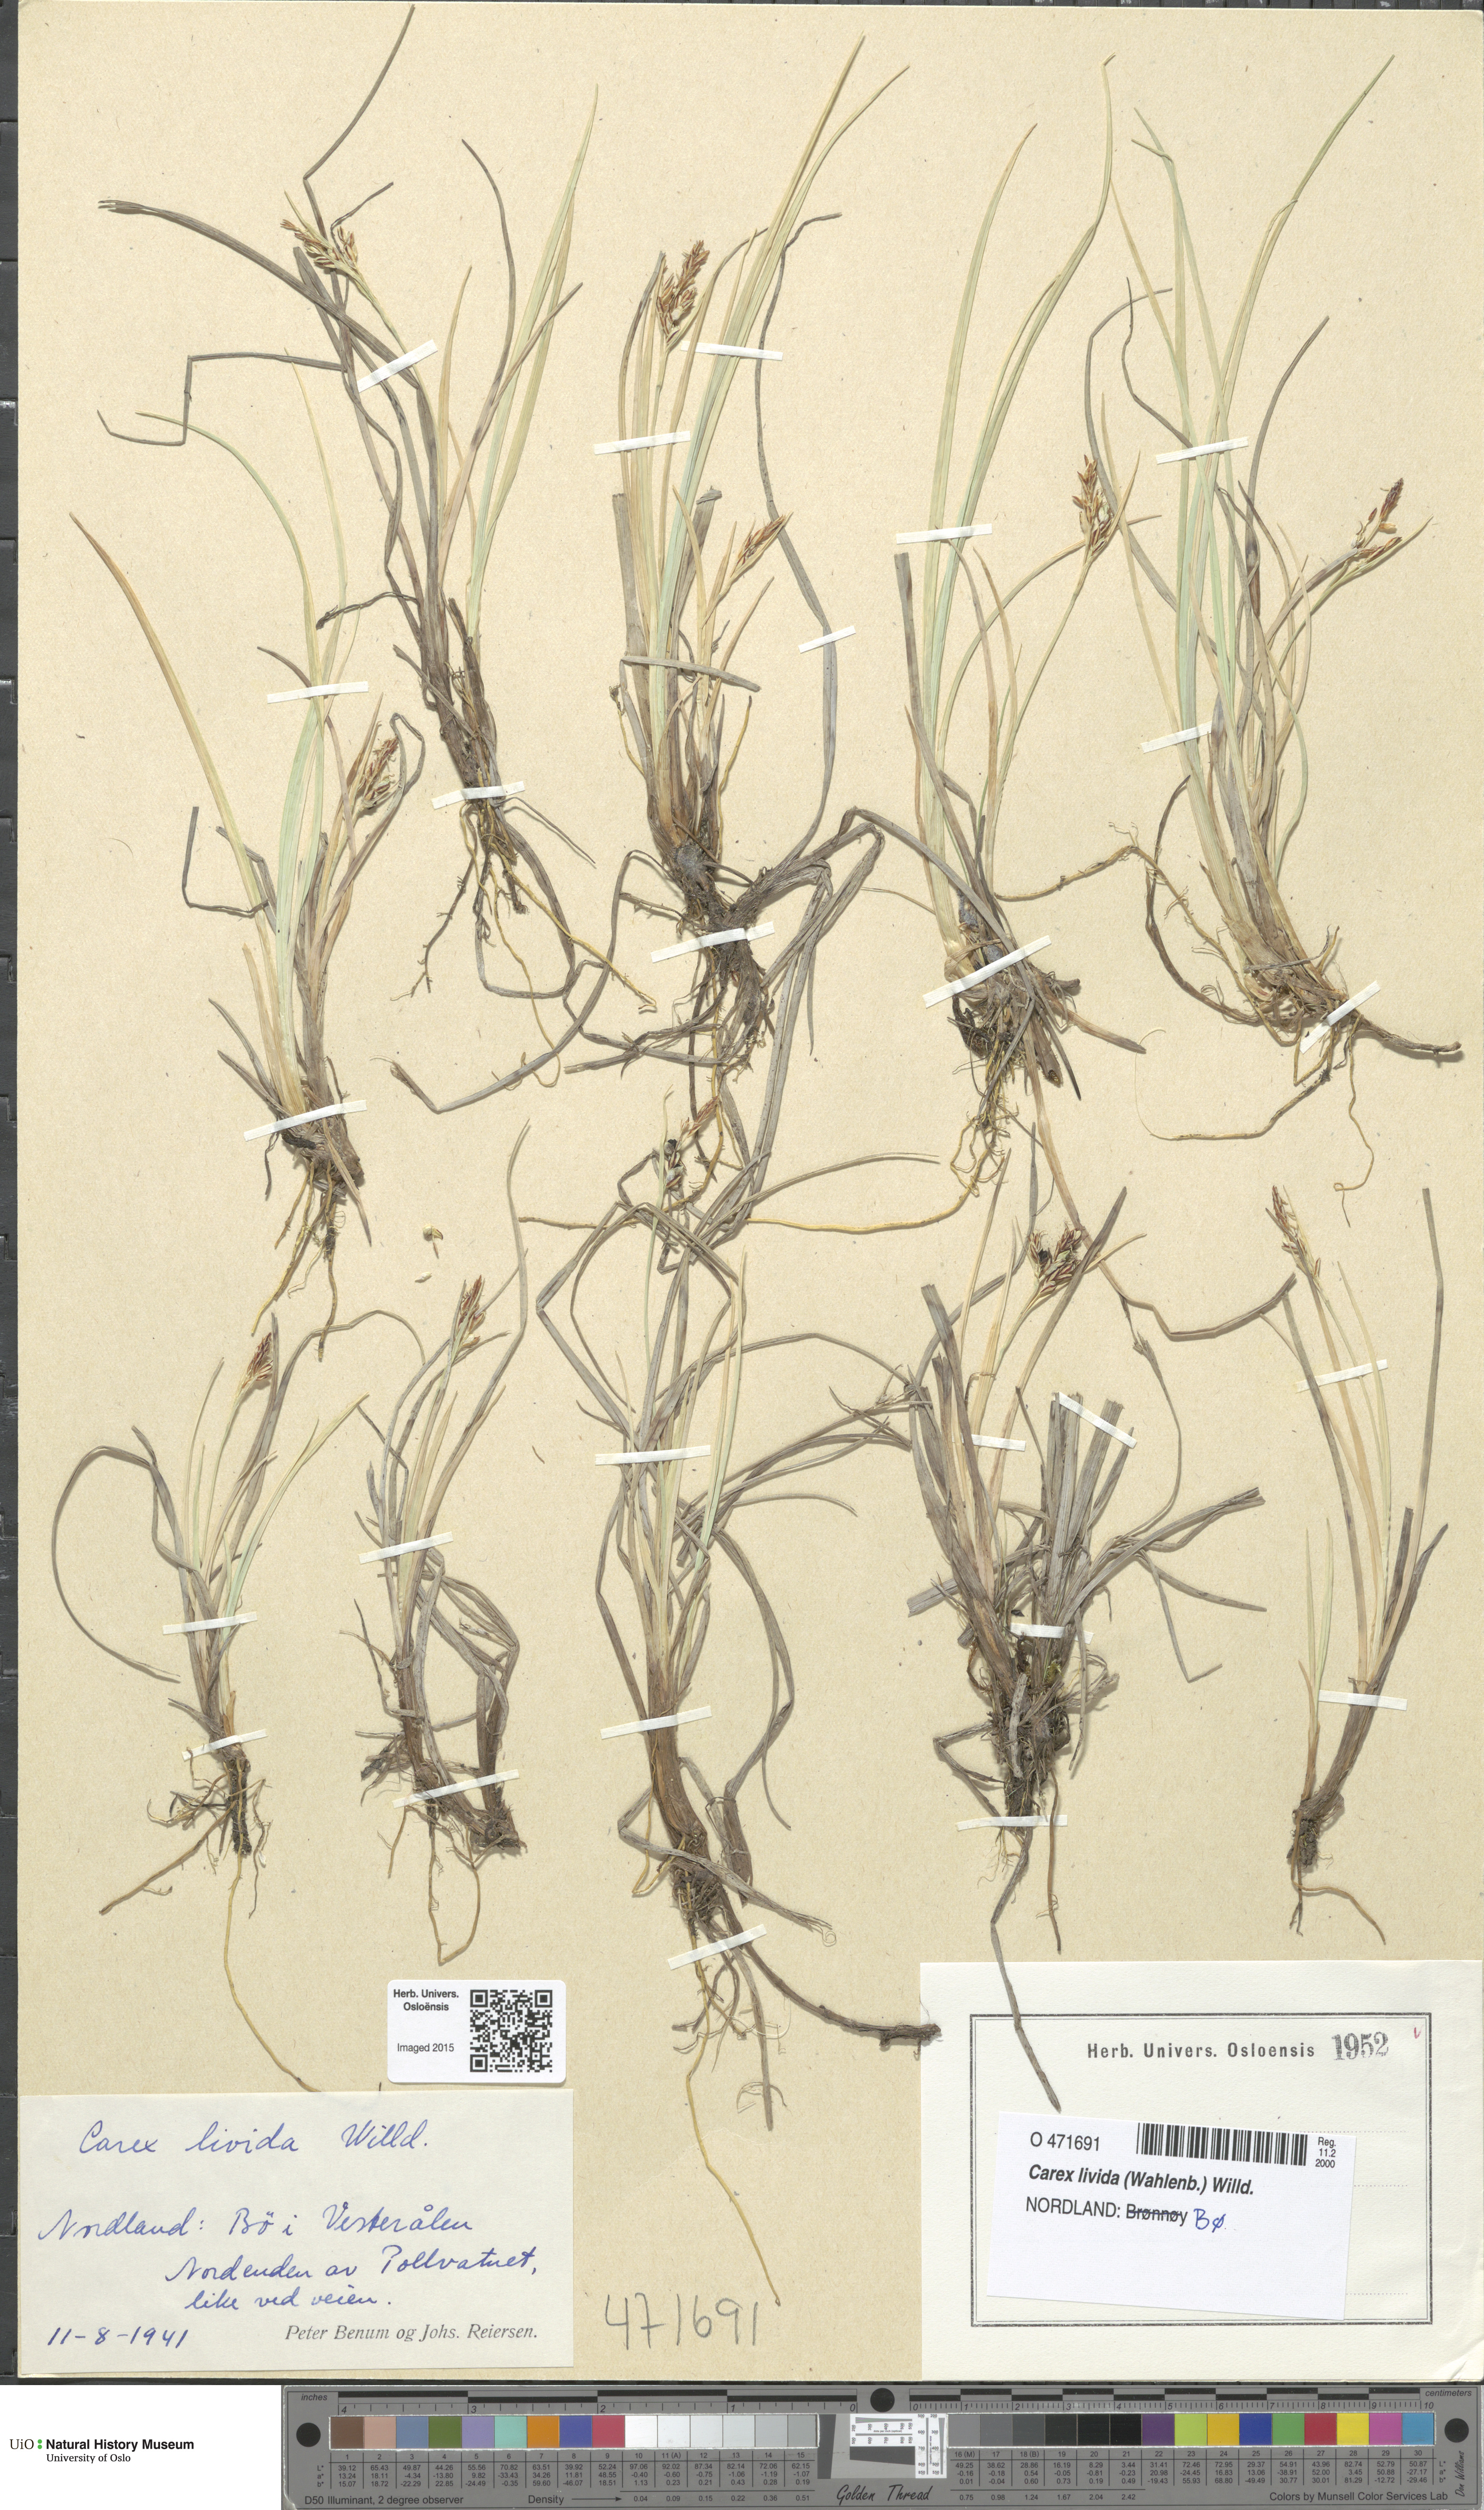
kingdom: Plantae
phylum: Tracheophyta
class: Liliopsida
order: Poales
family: Cyperaceae
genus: Carex
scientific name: Carex livida
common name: Livid sedge
